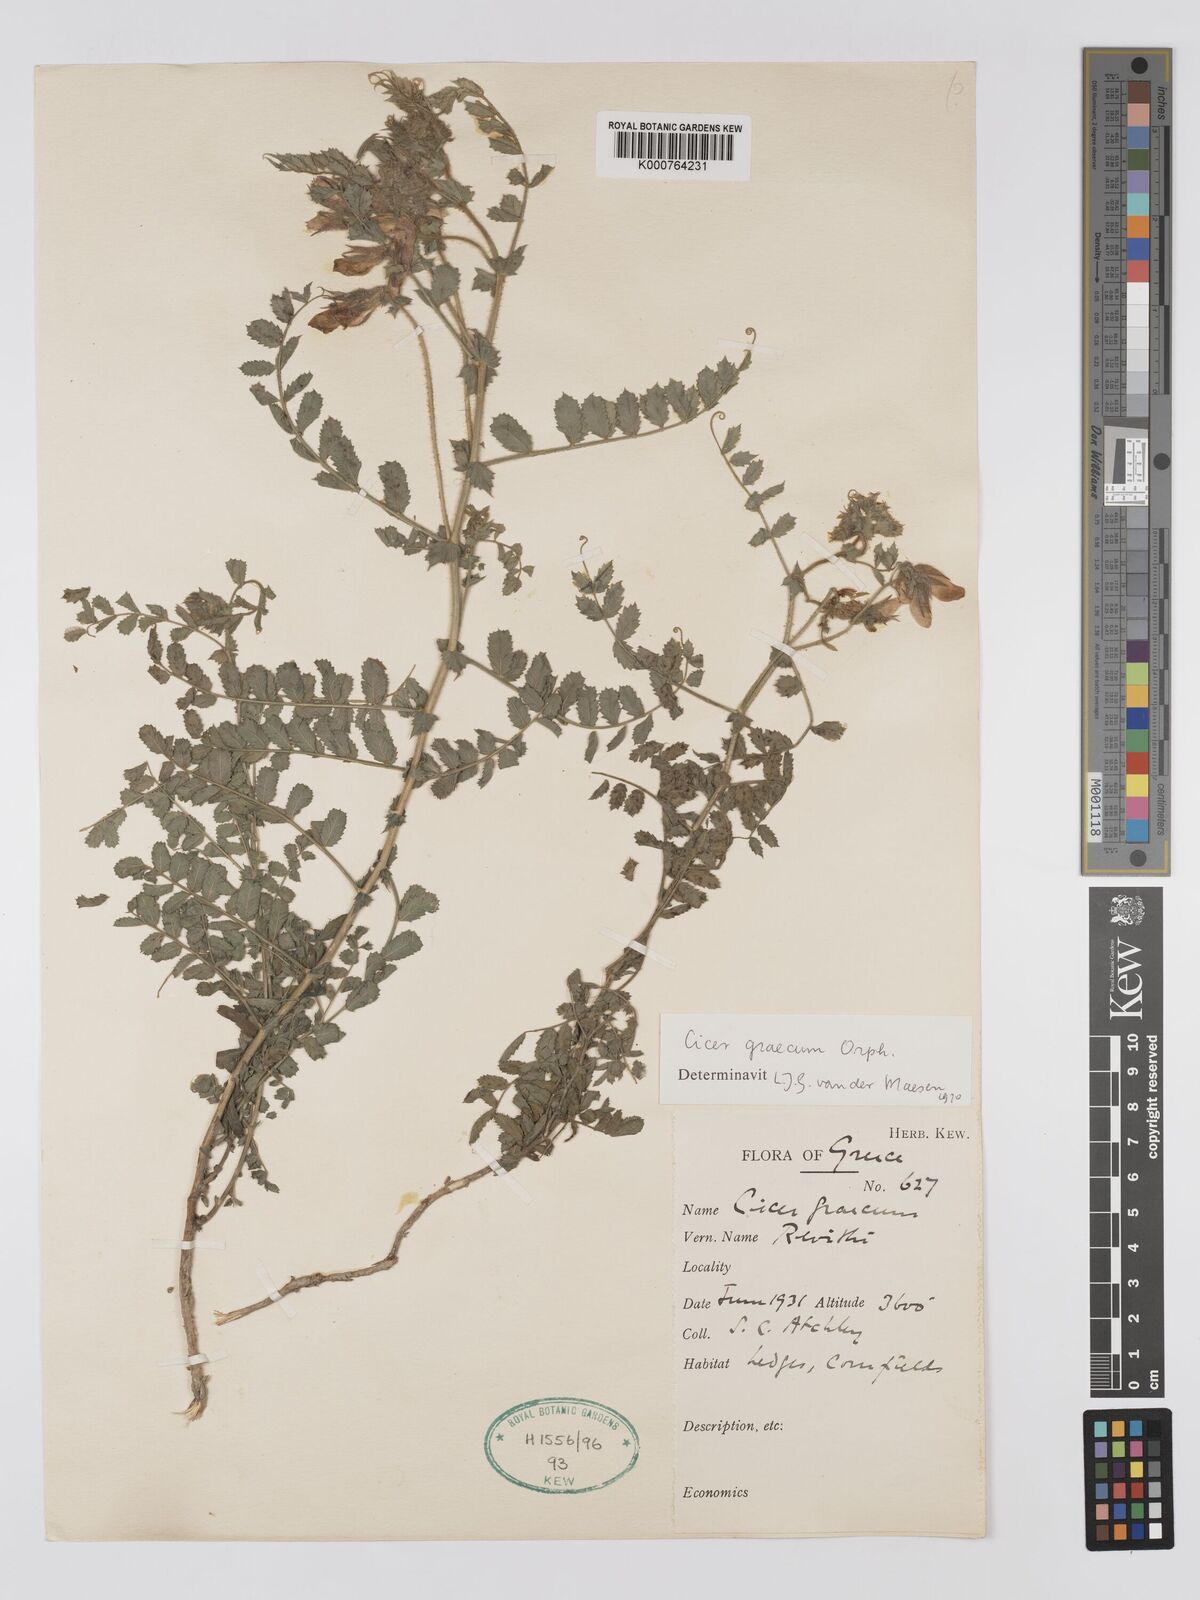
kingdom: Plantae
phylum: Tracheophyta
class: Magnoliopsida
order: Fabales
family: Fabaceae
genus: Cicer
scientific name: Cicer graecum
